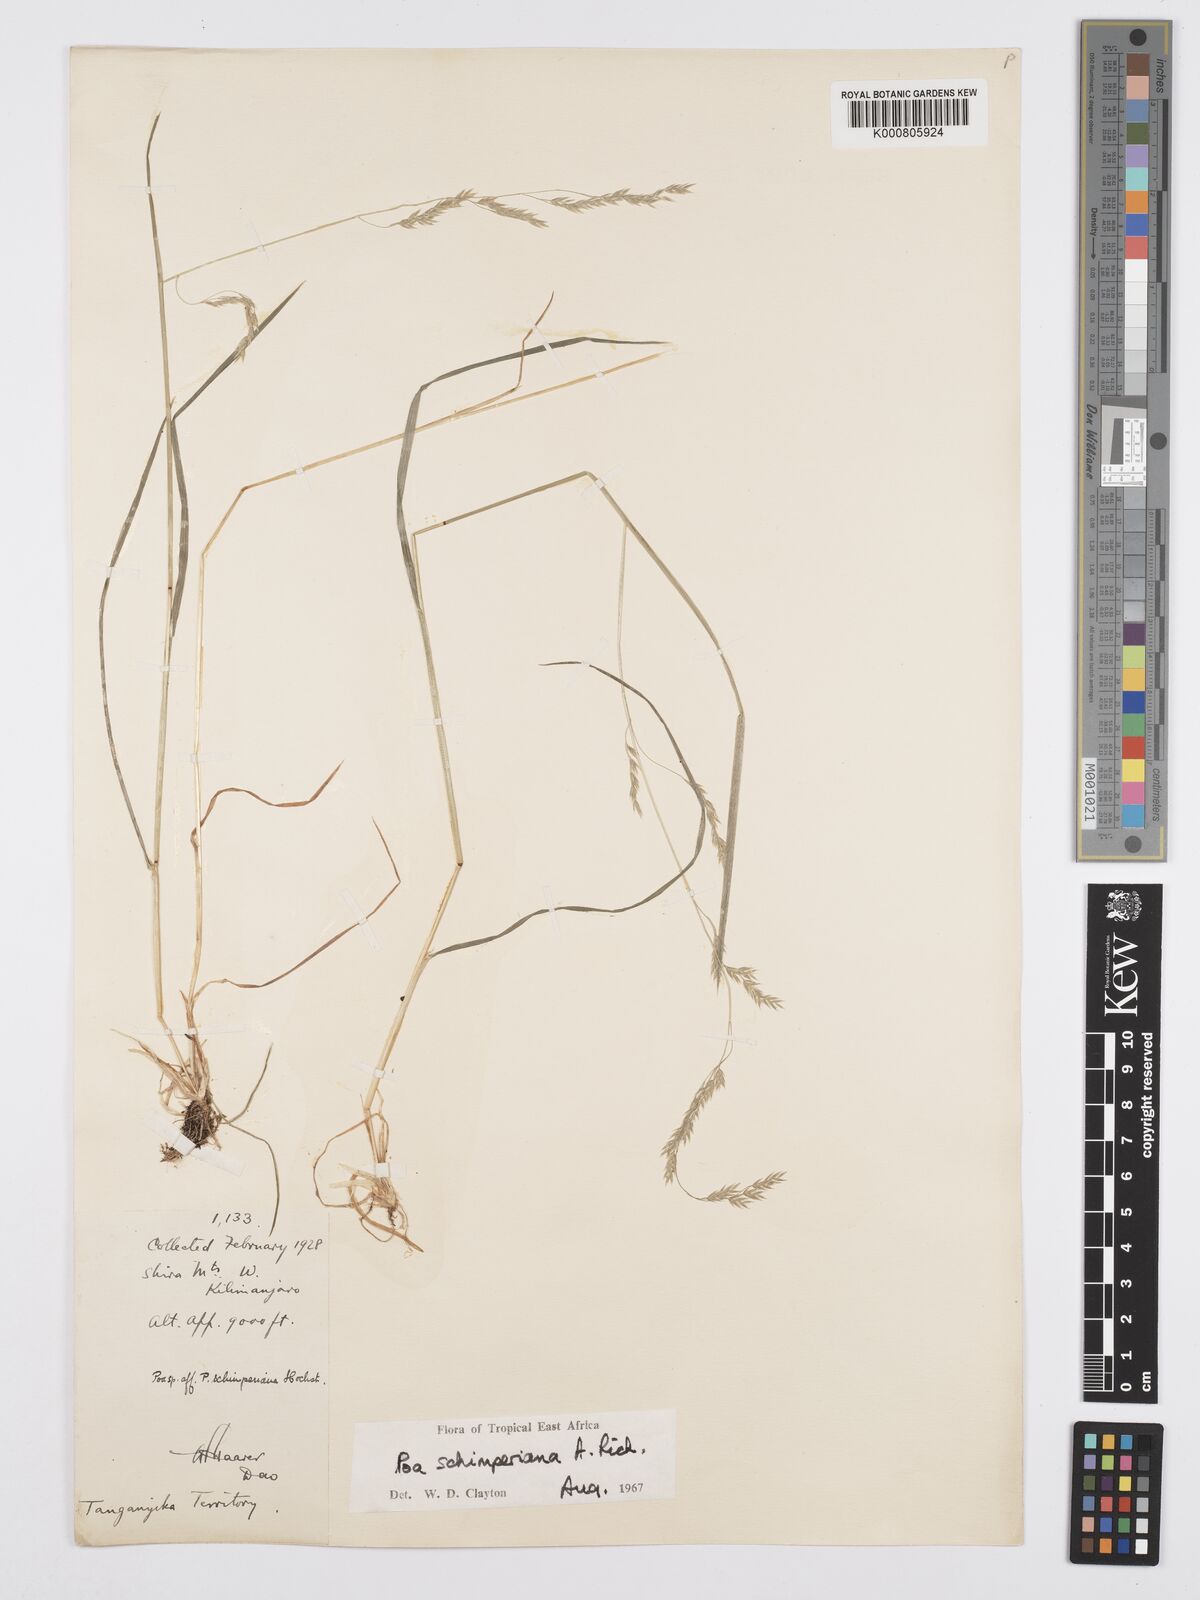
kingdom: Plantae
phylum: Tracheophyta
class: Liliopsida
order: Poales
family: Poaceae
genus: Poa
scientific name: Poa schimperiana
